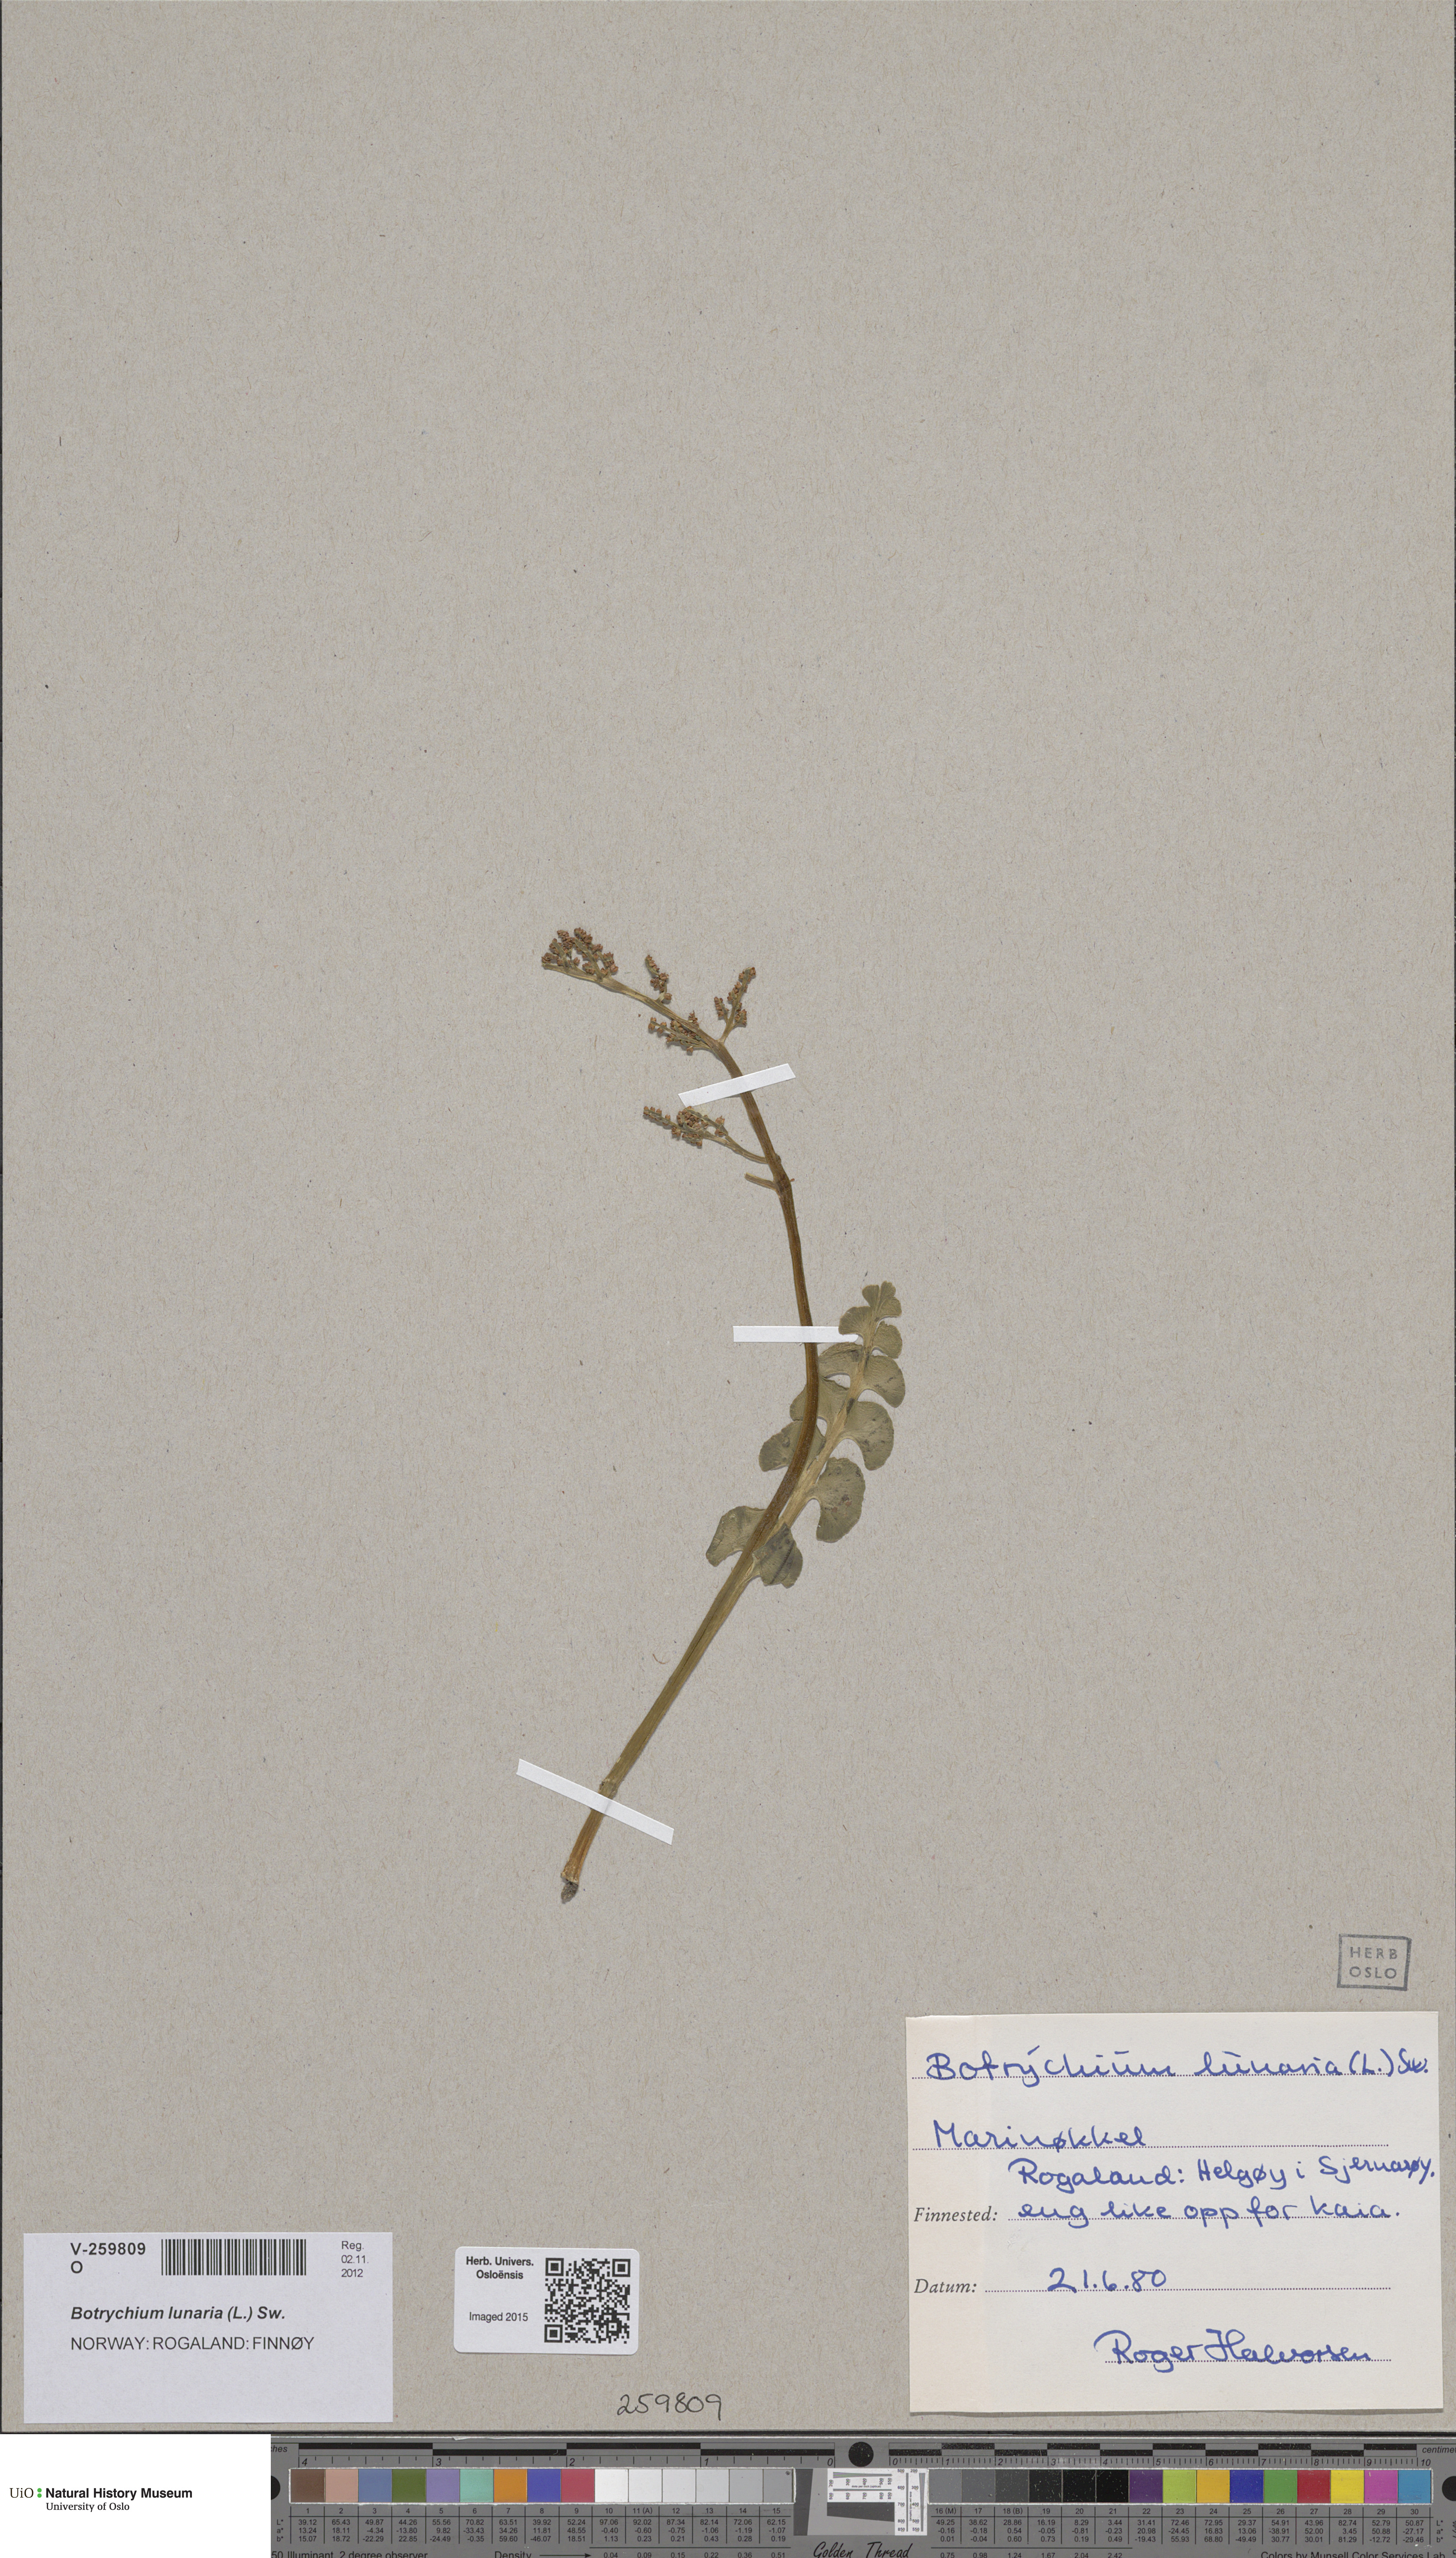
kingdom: Plantae
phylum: Tracheophyta
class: Polypodiopsida
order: Ophioglossales
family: Ophioglossaceae
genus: Botrychium
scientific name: Botrychium lunaria
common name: Moonwort
